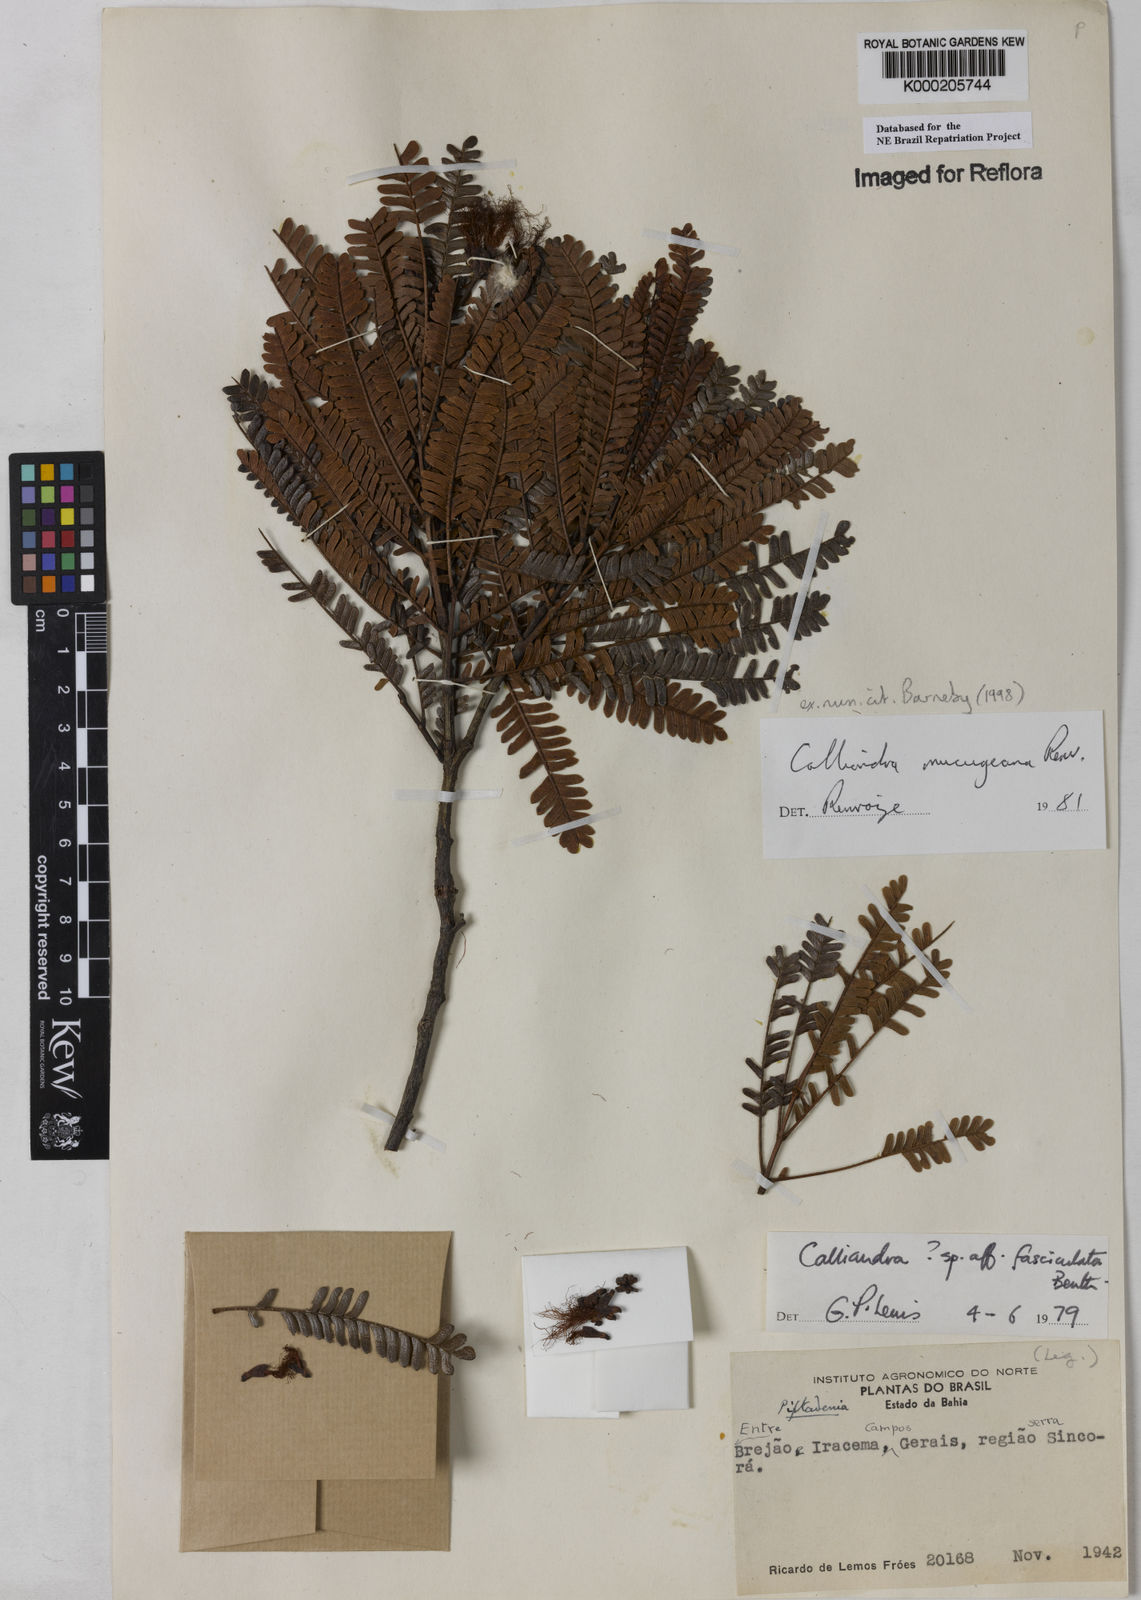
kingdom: Plantae
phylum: Tracheophyta
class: Magnoliopsida
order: Fabales
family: Fabaceae
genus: Calliandra
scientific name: Calliandra mucugeana
